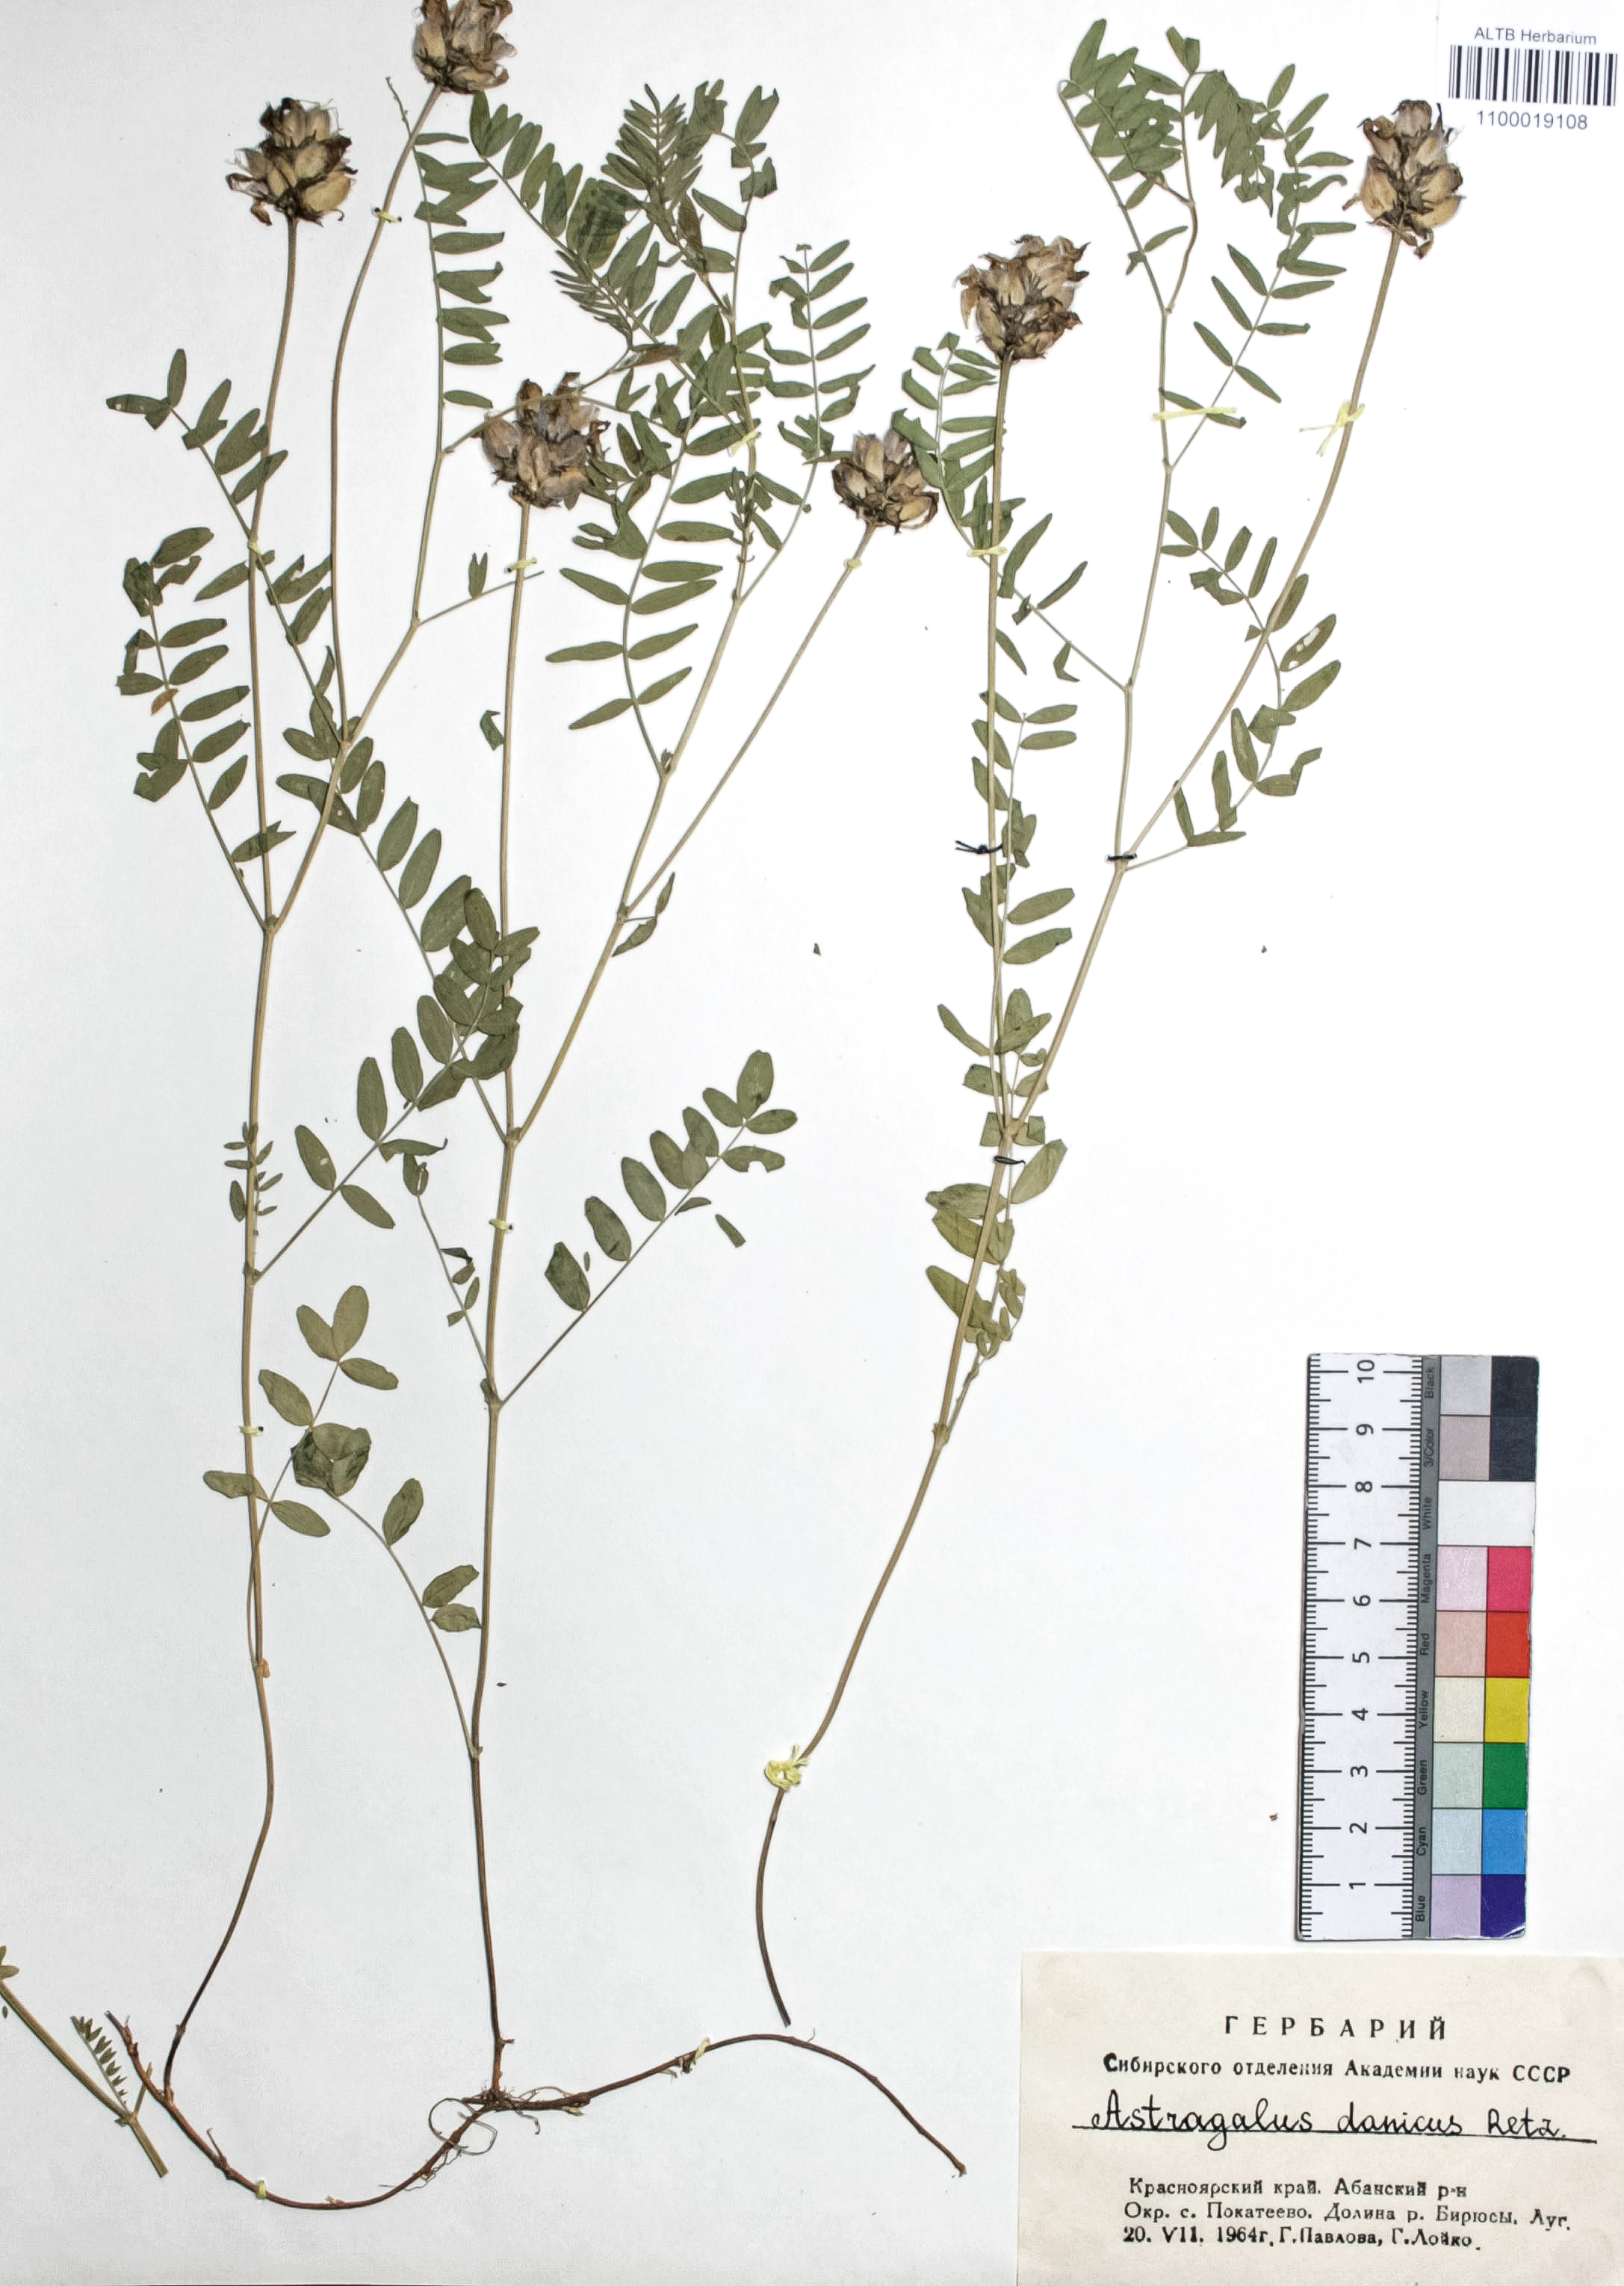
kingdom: Plantae
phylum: Tracheophyta
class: Magnoliopsida
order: Fabales
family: Fabaceae
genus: Astragalus
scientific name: Astragalus danicus
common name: Purple milk-vetch
